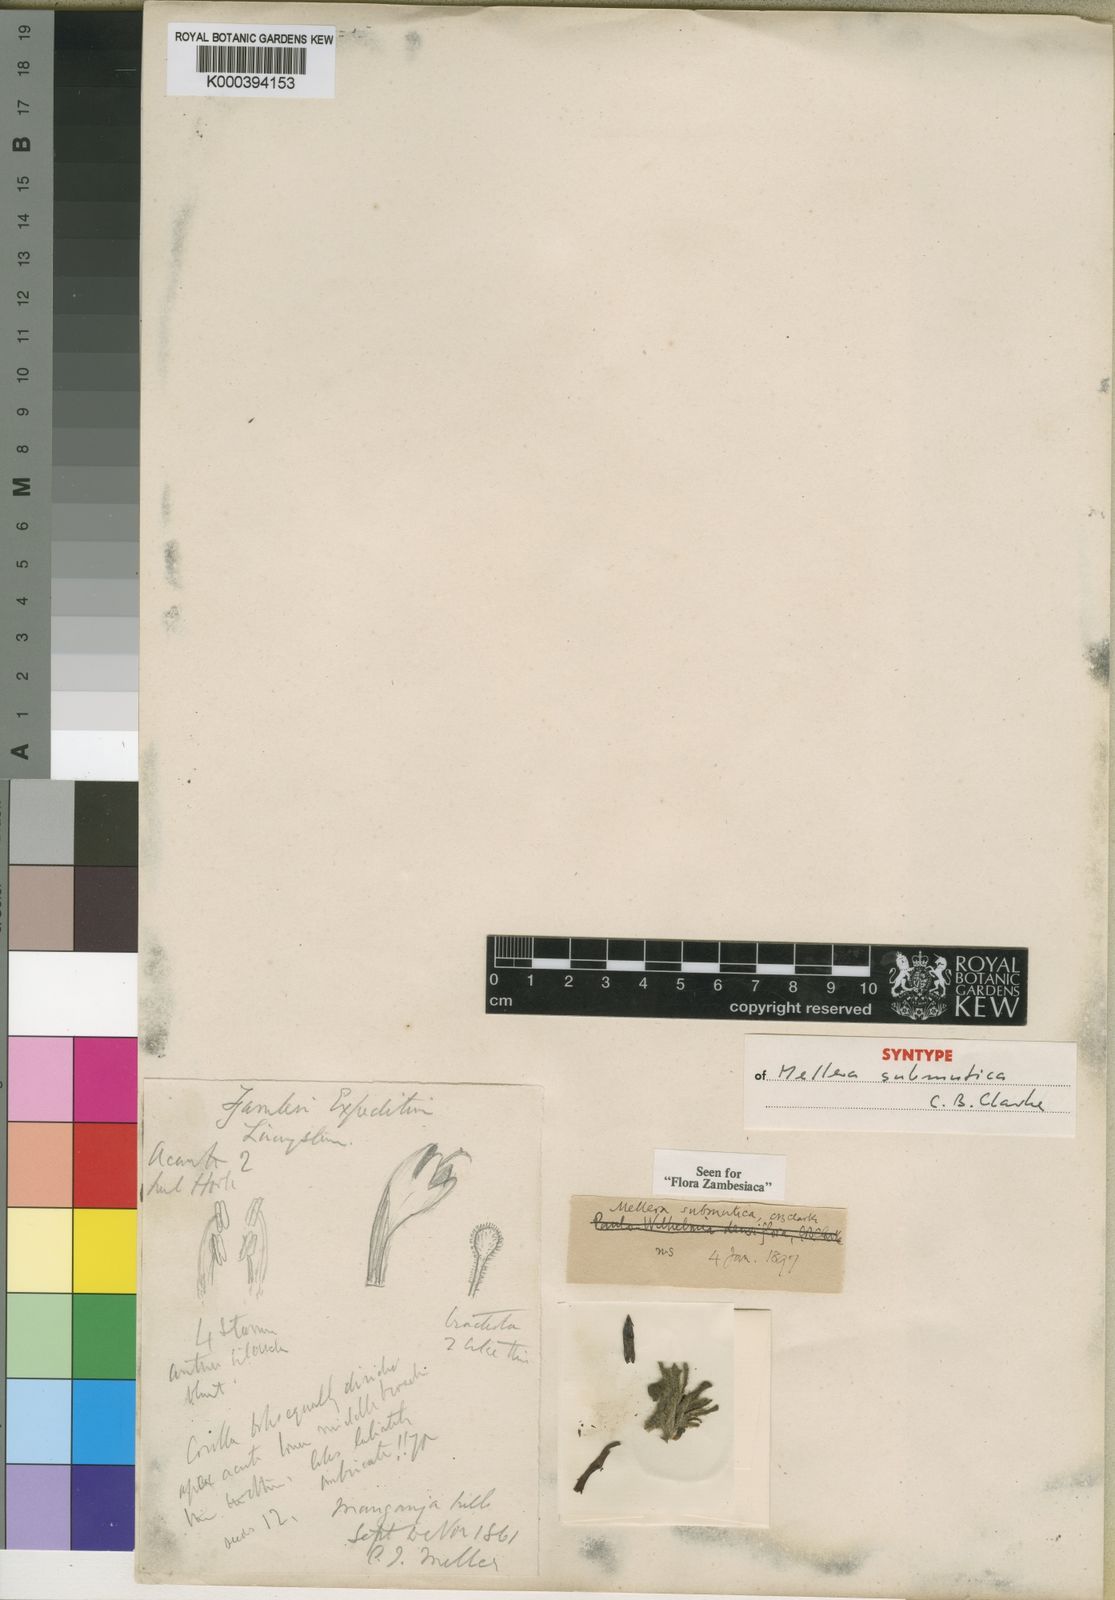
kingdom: Plantae
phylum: Tracheophyta
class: Magnoliopsida
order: Lamiales
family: Acanthaceae
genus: Mellera
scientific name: Mellera submutica
